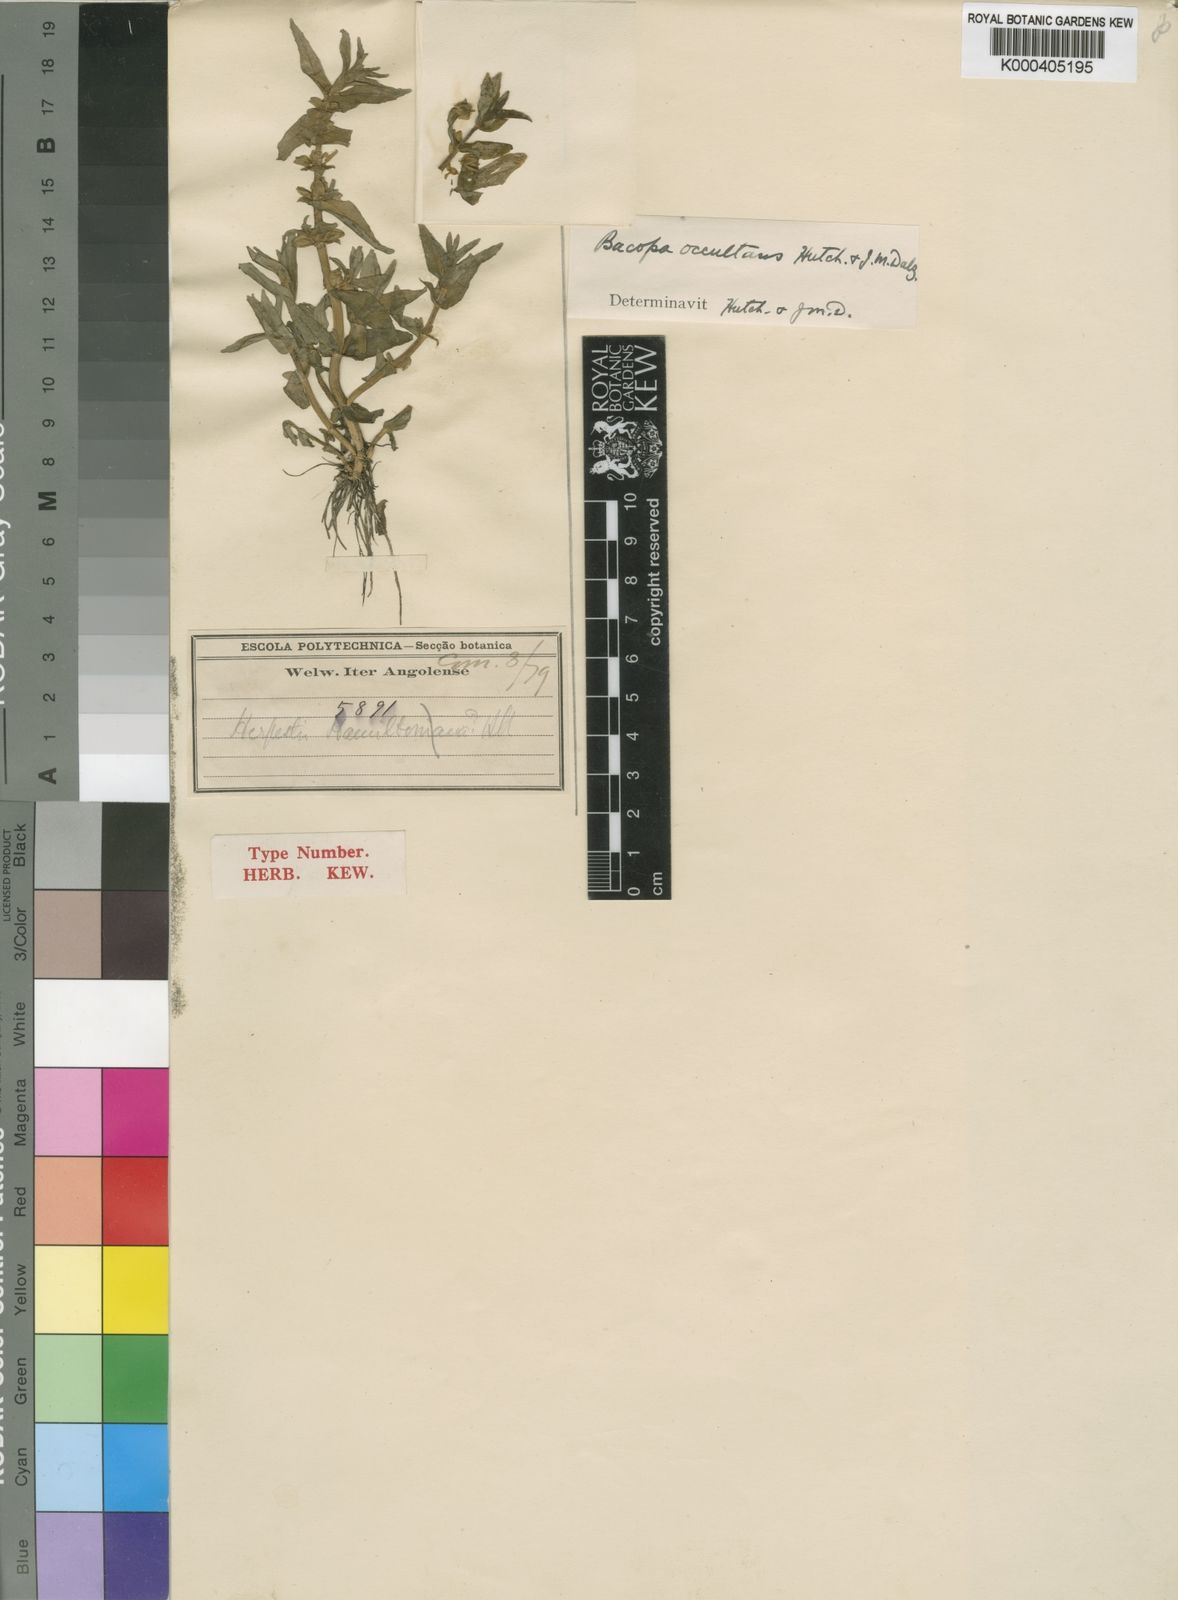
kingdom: Plantae
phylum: Tracheophyta
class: Magnoliopsida
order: Lamiales
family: Plantaginaceae
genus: Bacopa
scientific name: Bacopa occultans
